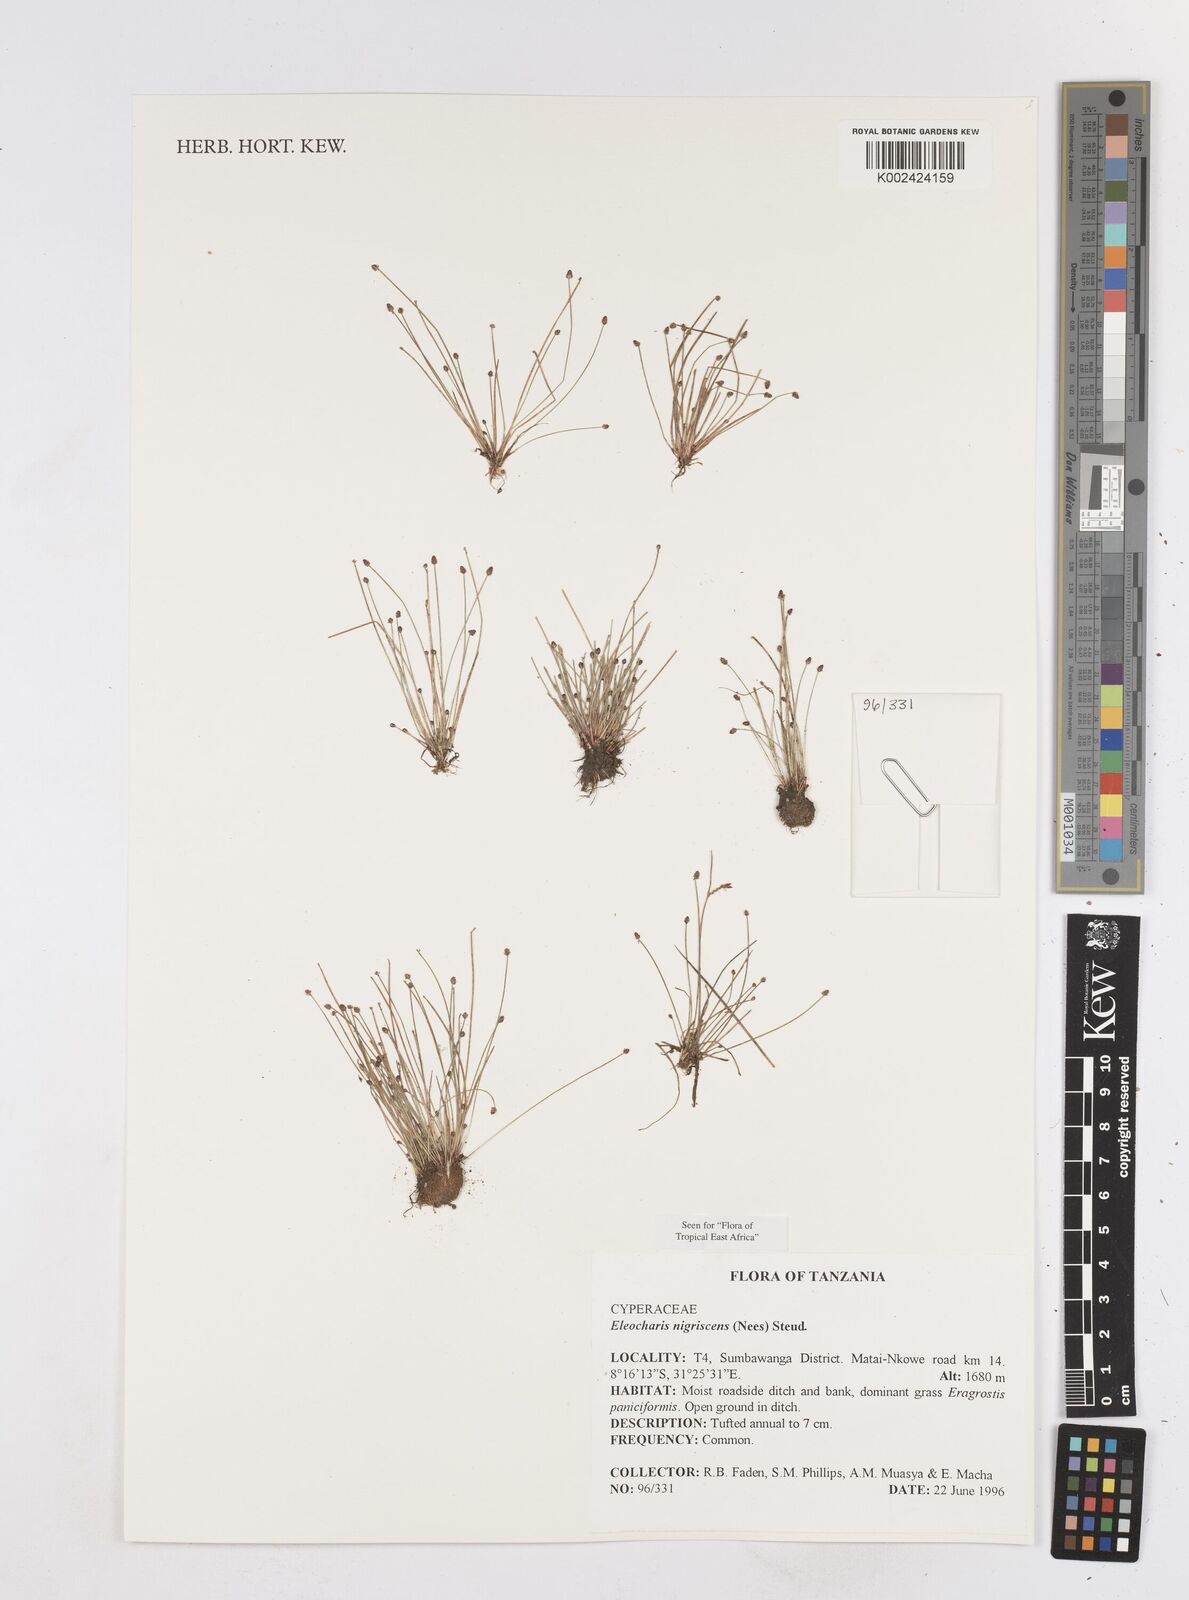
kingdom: Plantae
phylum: Tracheophyta
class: Liliopsida
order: Poales
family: Cyperaceae
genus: Eleocharis
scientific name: Eleocharis nigrescens
